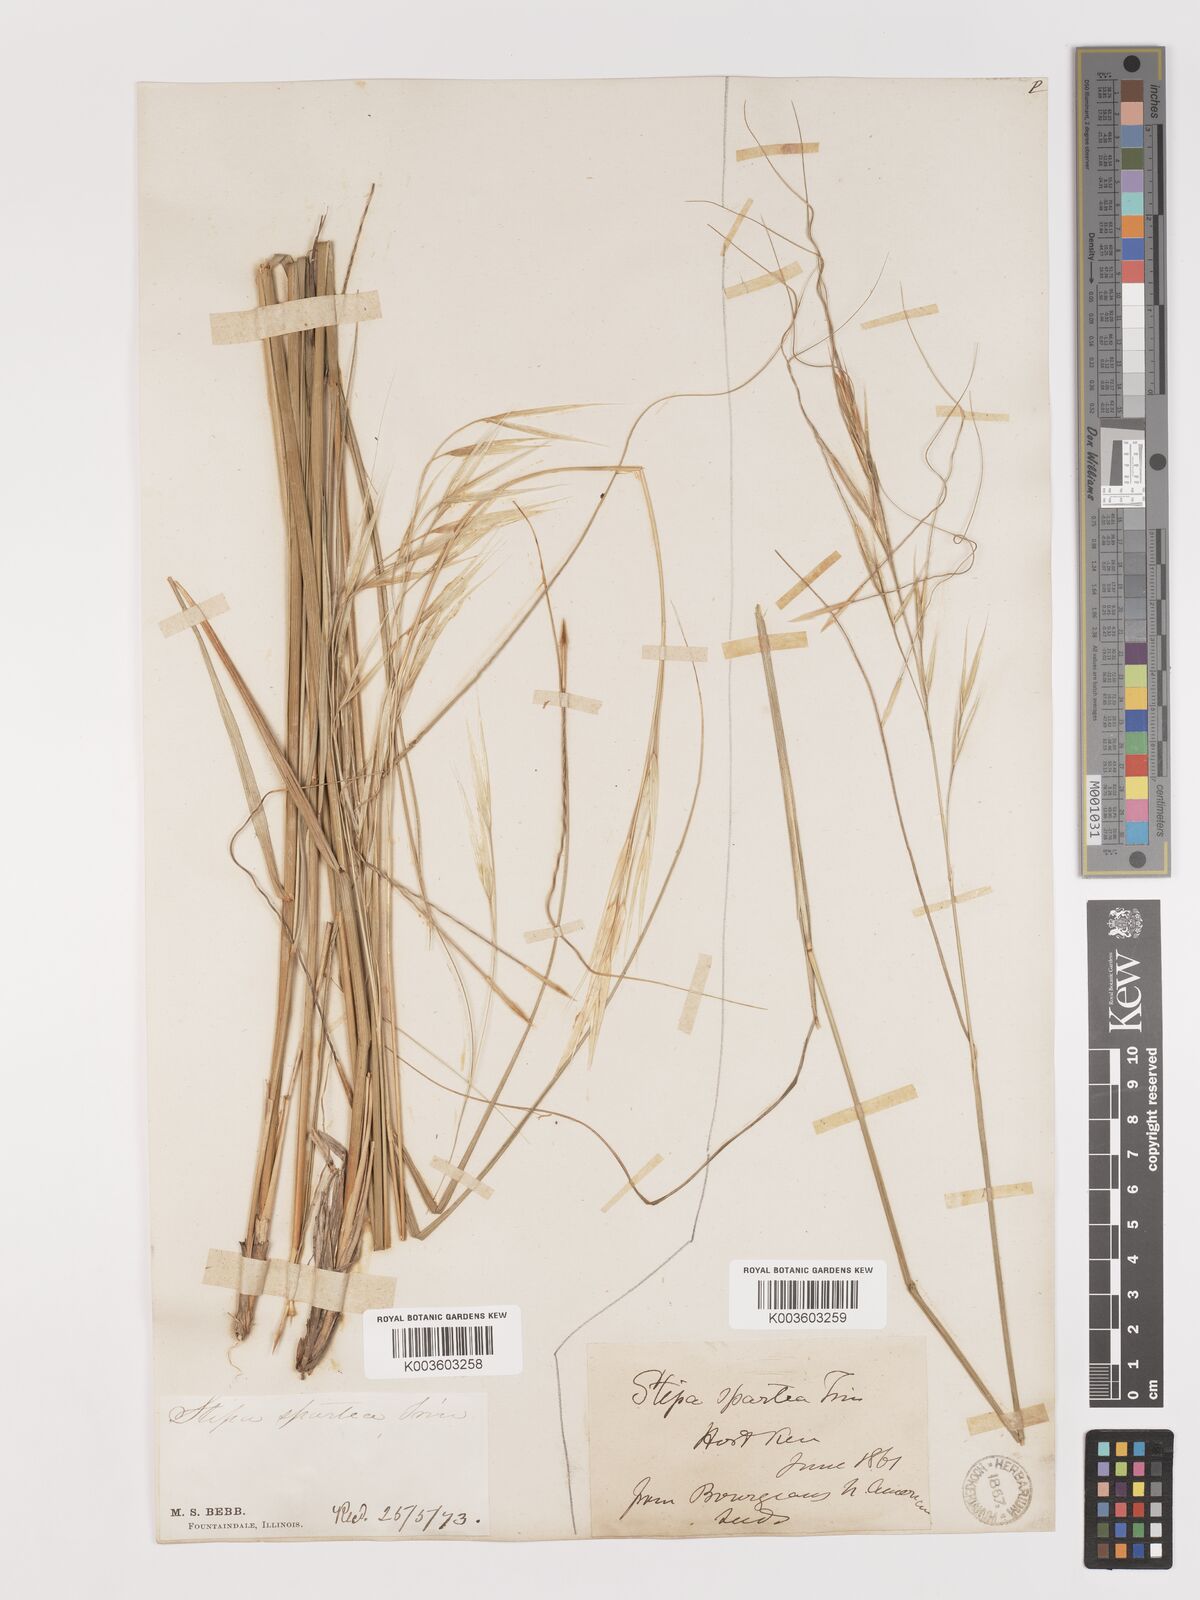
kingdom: Plantae
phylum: Tracheophyta
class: Liliopsida
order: Poales
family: Poaceae
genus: Hesperostipa
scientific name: Hesperostipa spartea
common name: Porcupine grass
